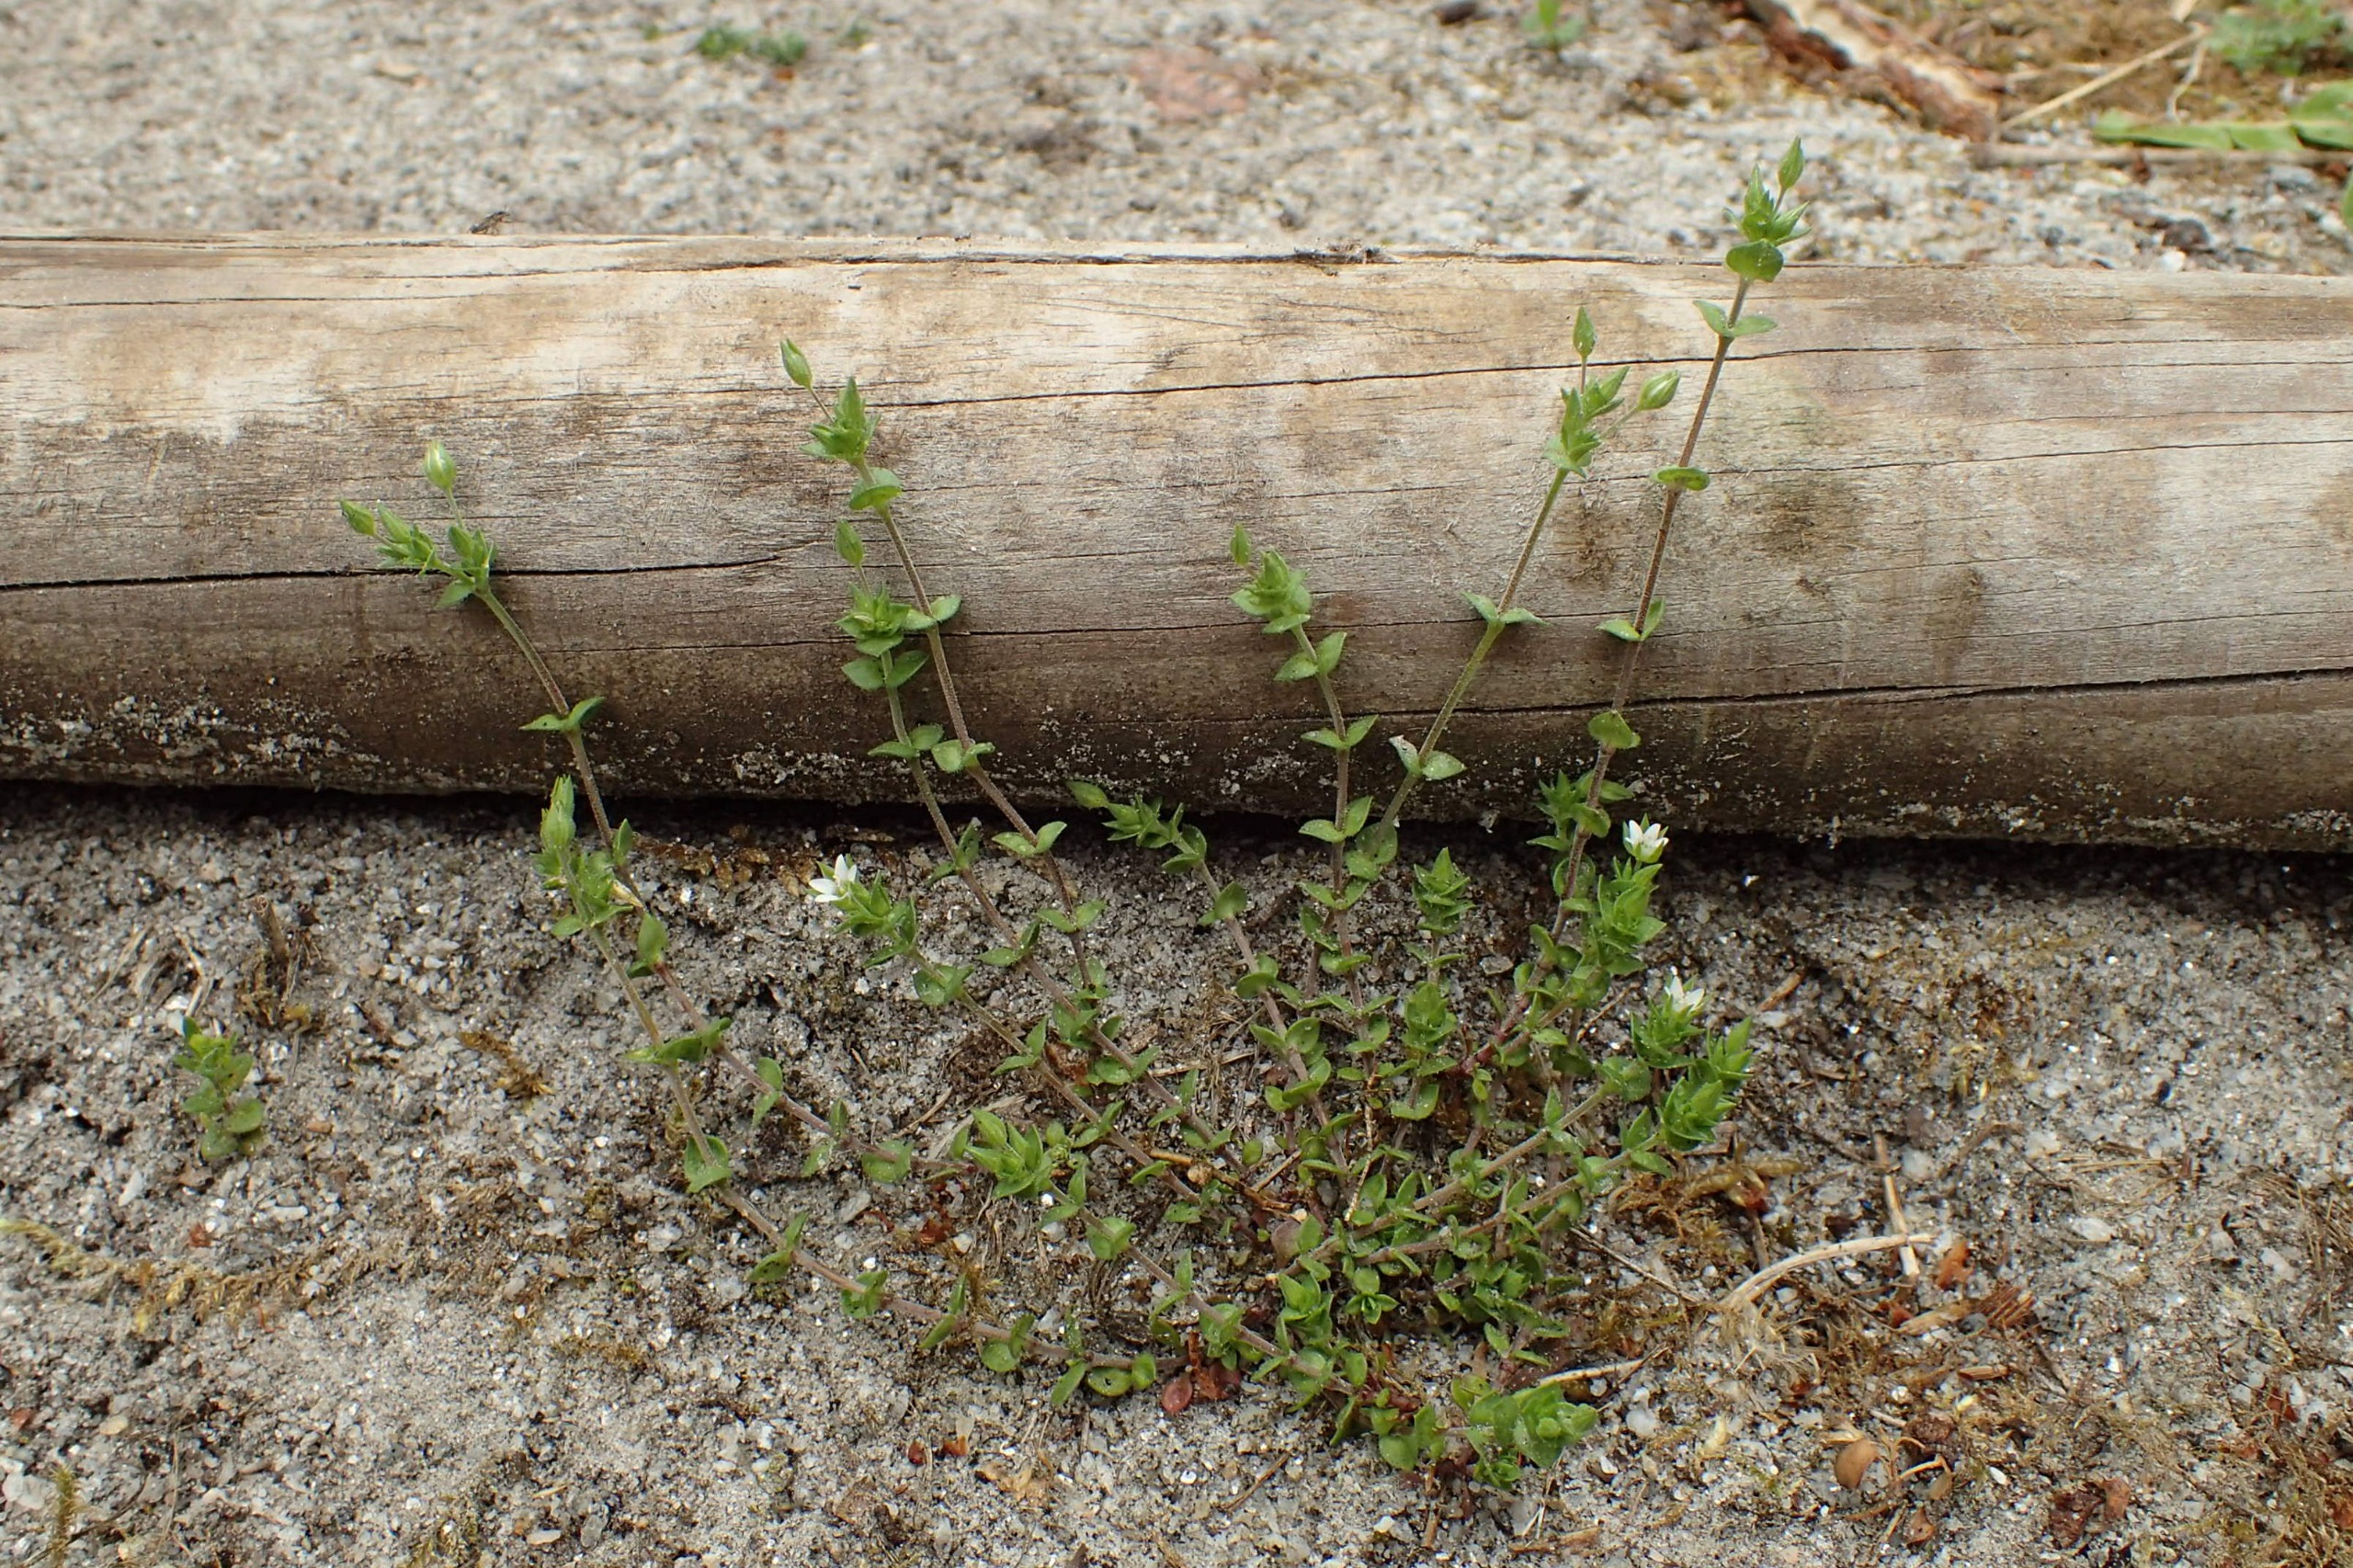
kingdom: Plantae
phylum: Tracheophyta
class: Magnoliopsida
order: Caryophyllales
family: Caryophyllaceae
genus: Arenaria
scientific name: Arenaria serpyllifolia
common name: Almindelig markarve
